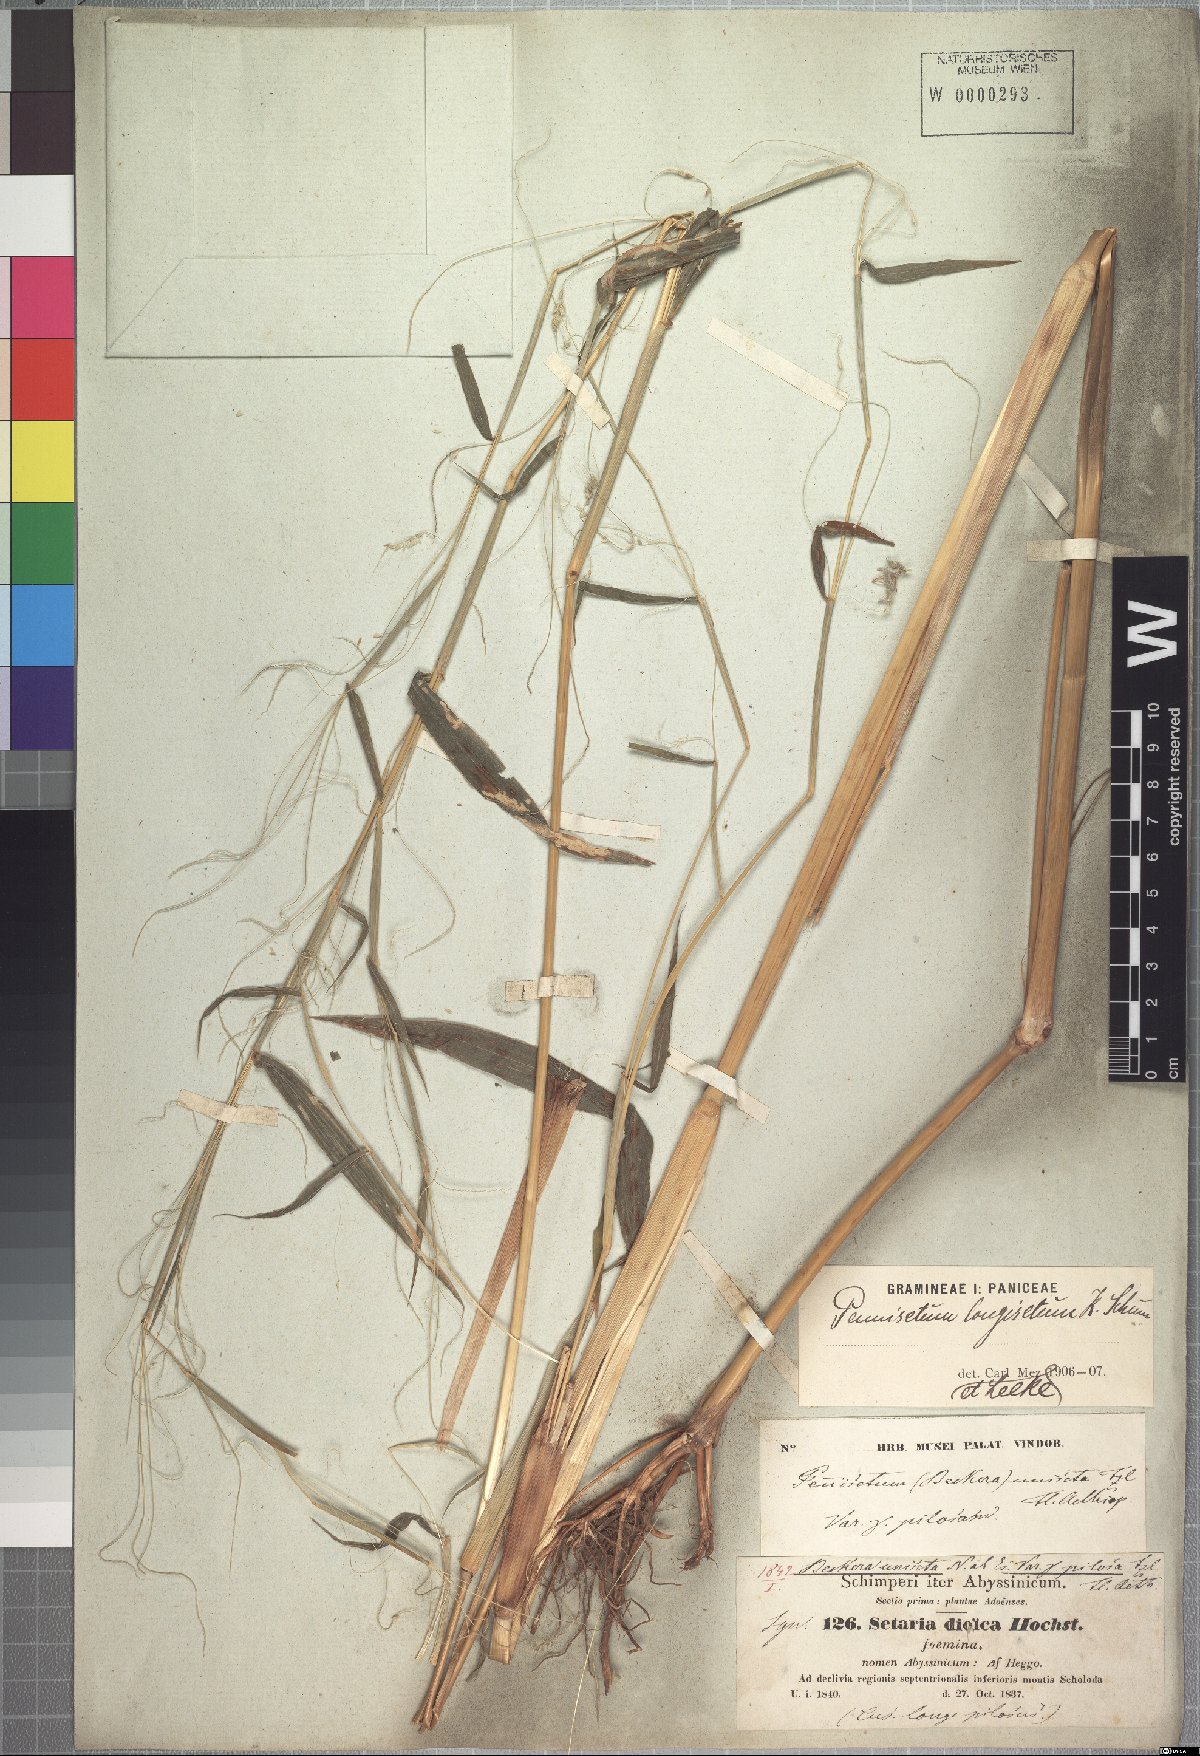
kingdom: Plantae
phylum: Tracheophyta
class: Liliopsida
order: Poales
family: Poaceae
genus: Cenchrus
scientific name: Cenchrus petiolaris
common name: Grass
